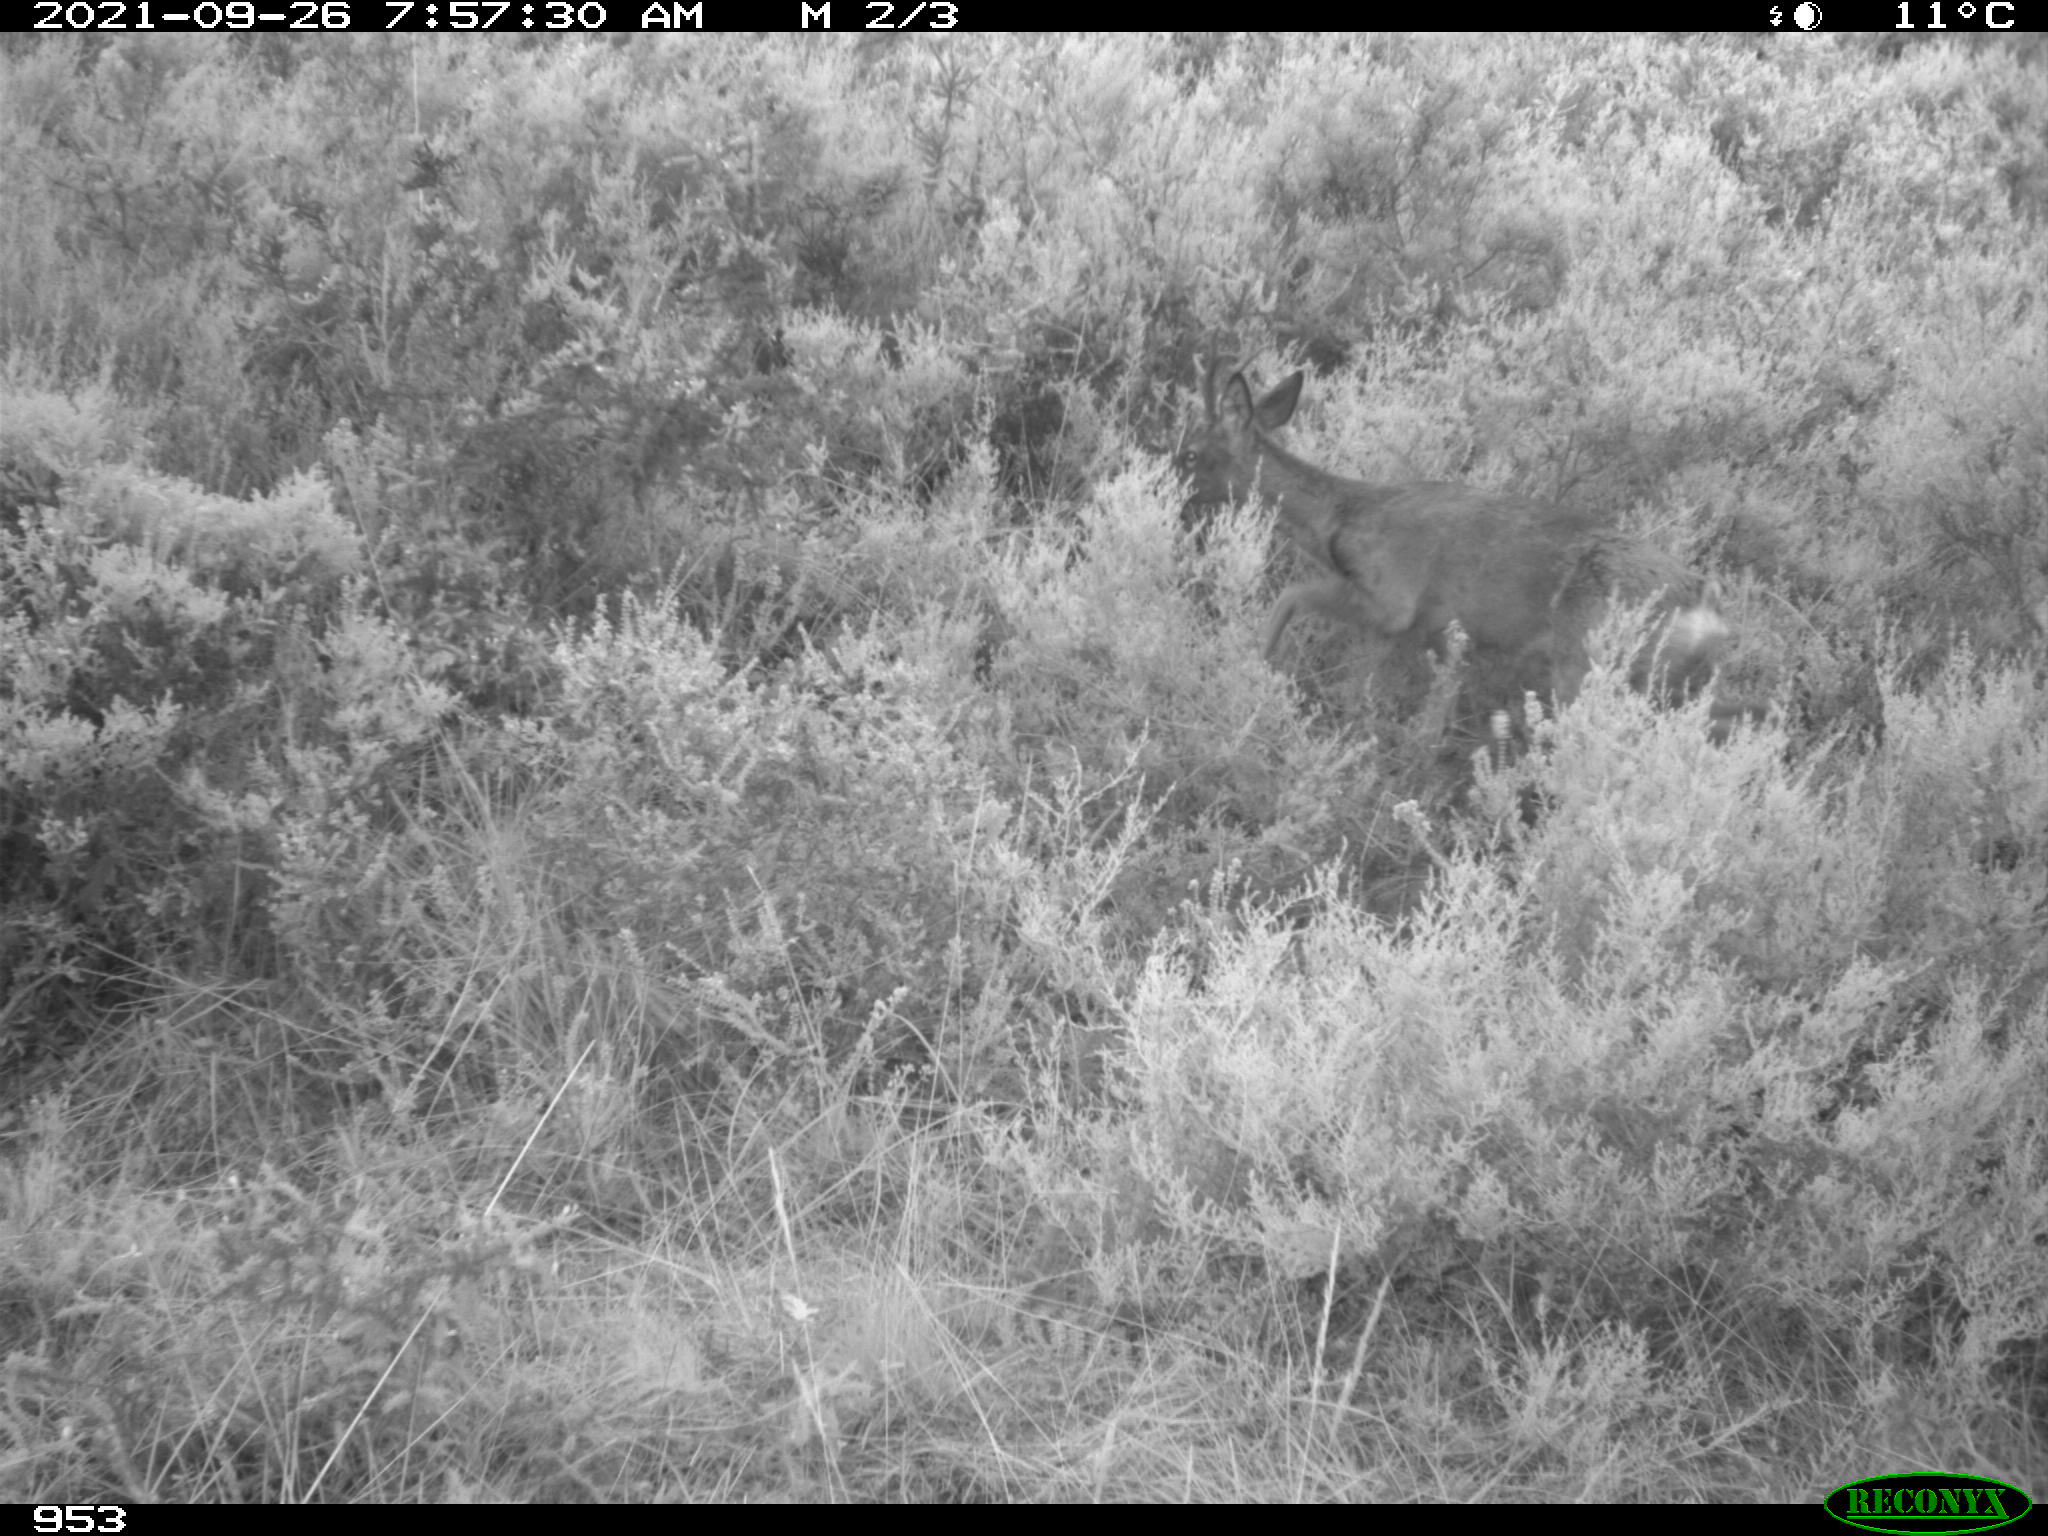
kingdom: Animalia
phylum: Chordata
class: Mammalia
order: Artiodactyla
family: Cervidae
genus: Capreolus
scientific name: Capreolus capreolus
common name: Western roe deer
